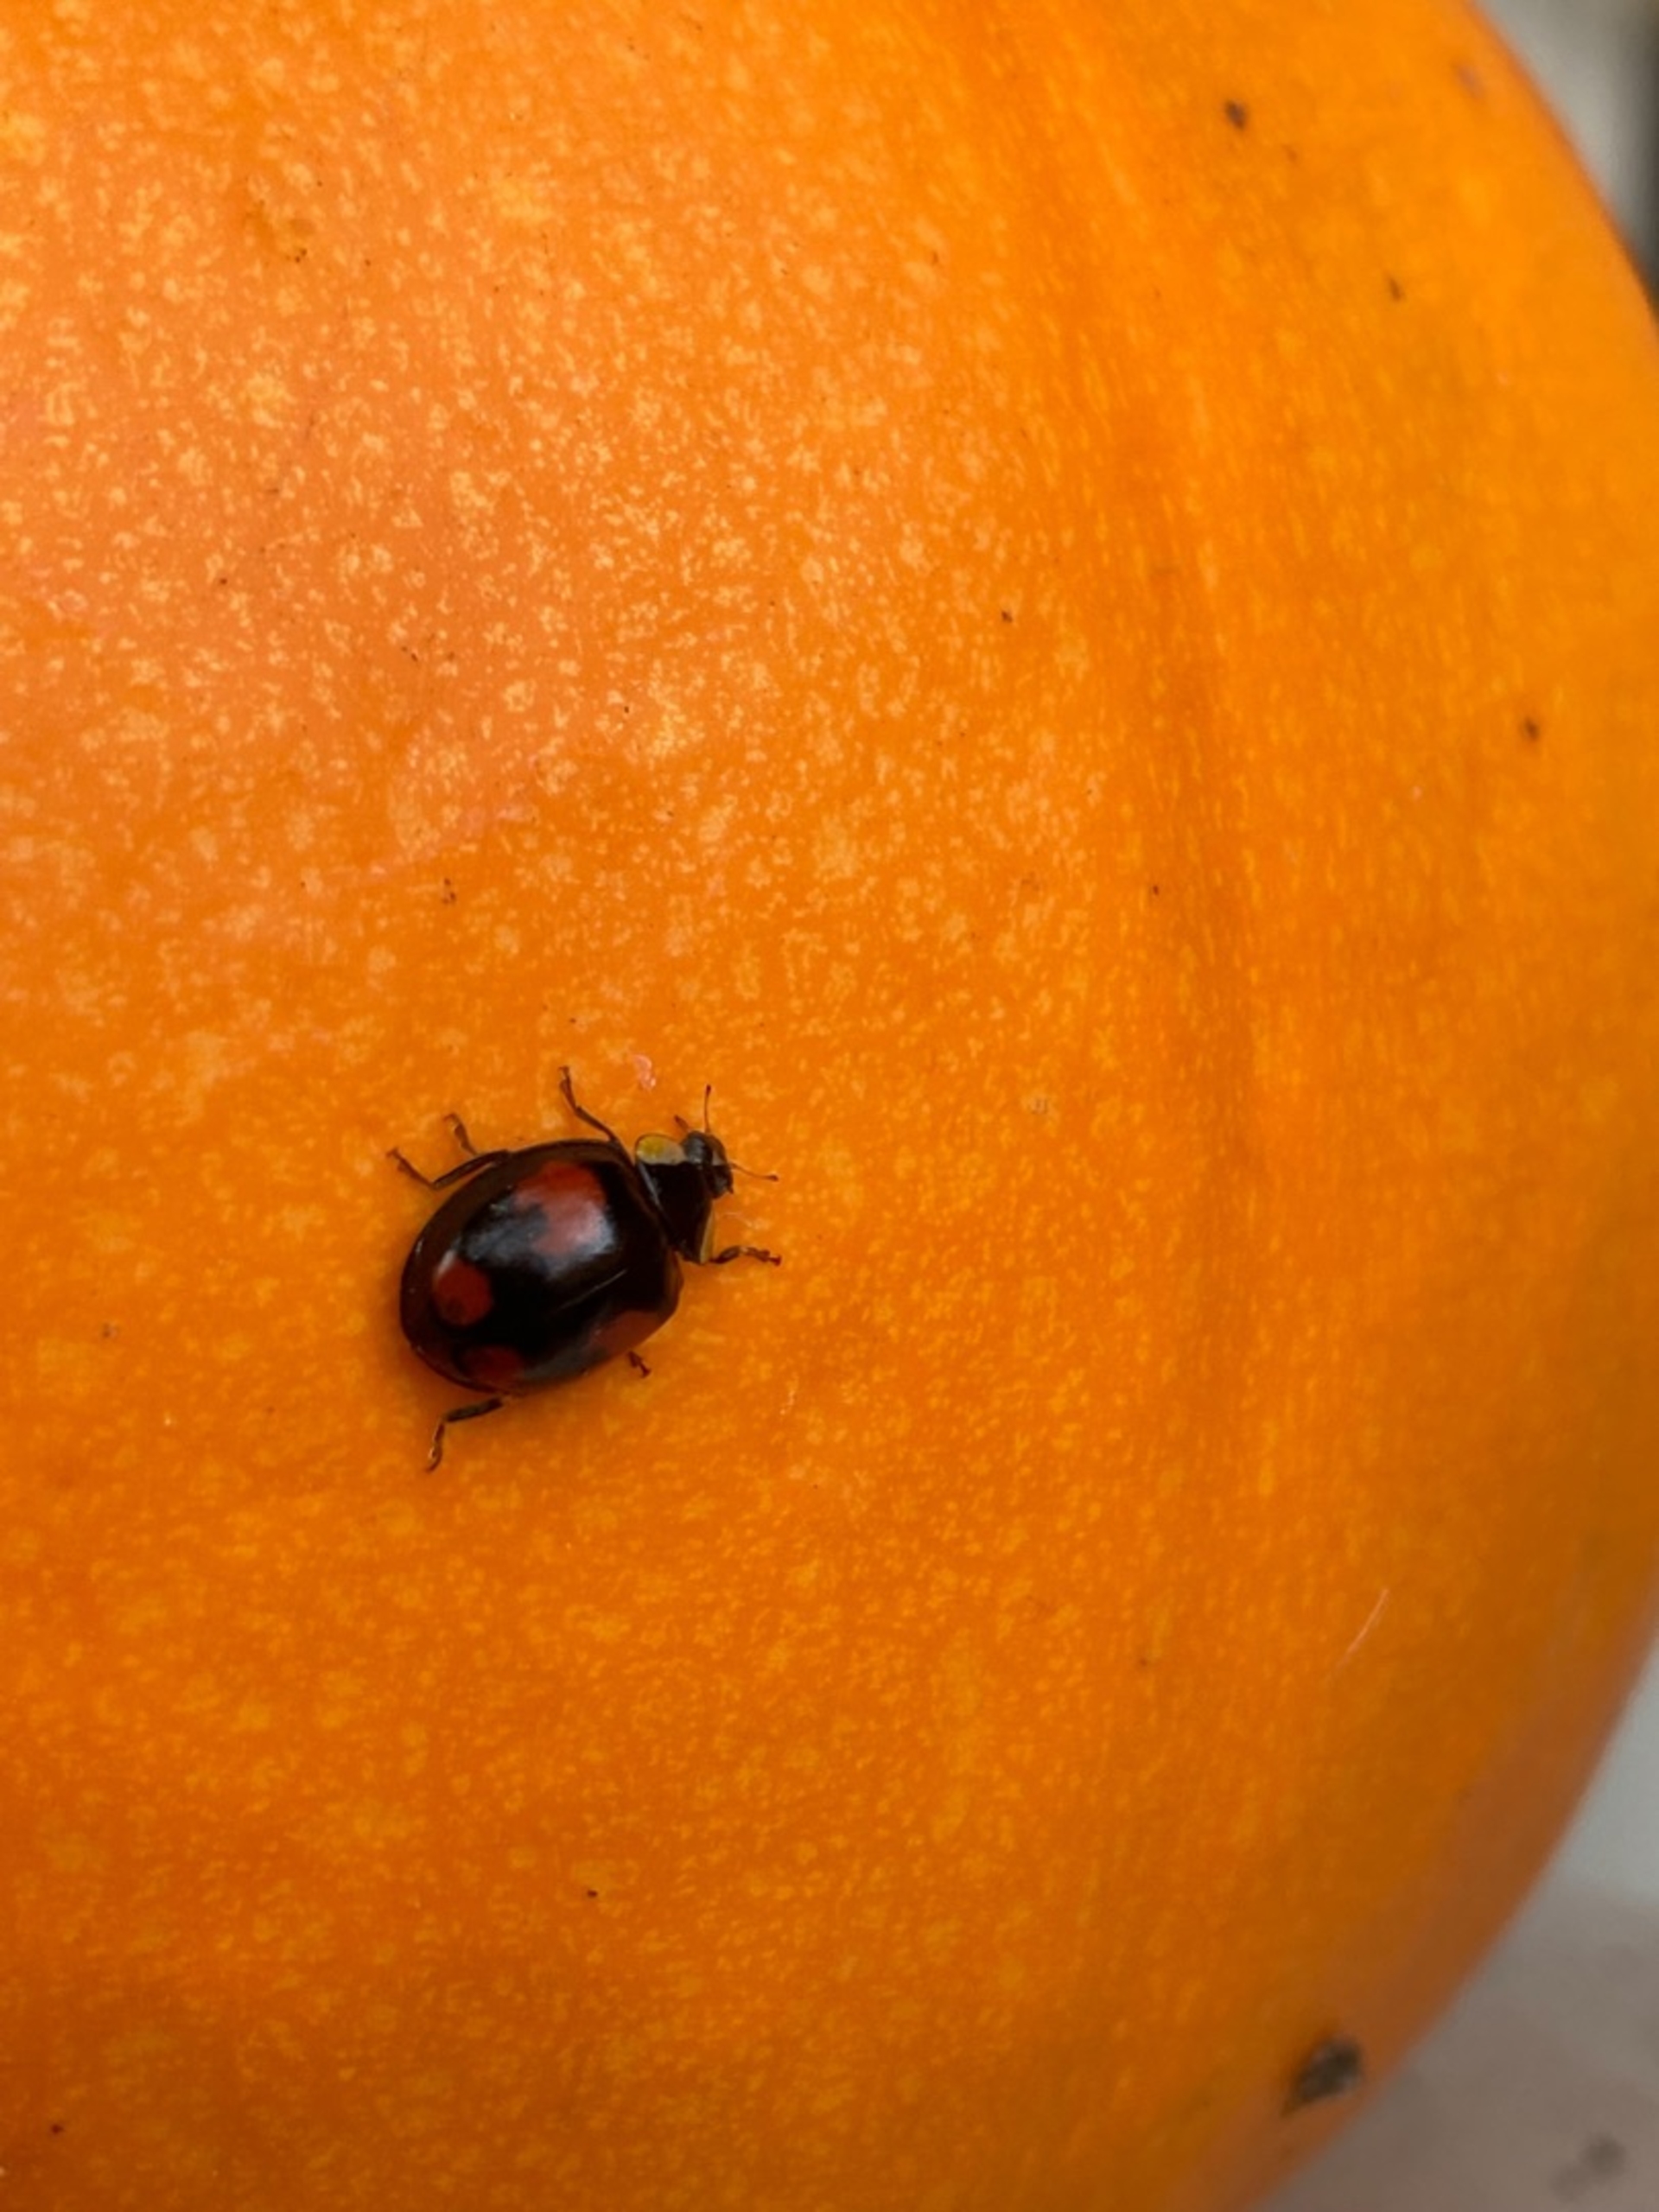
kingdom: Animalia
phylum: Arthropoda
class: Insecta
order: Coleoptera
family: Coccinellidae
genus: Harmonia
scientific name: Harmonia axyridis
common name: Harlekinmariehøne
